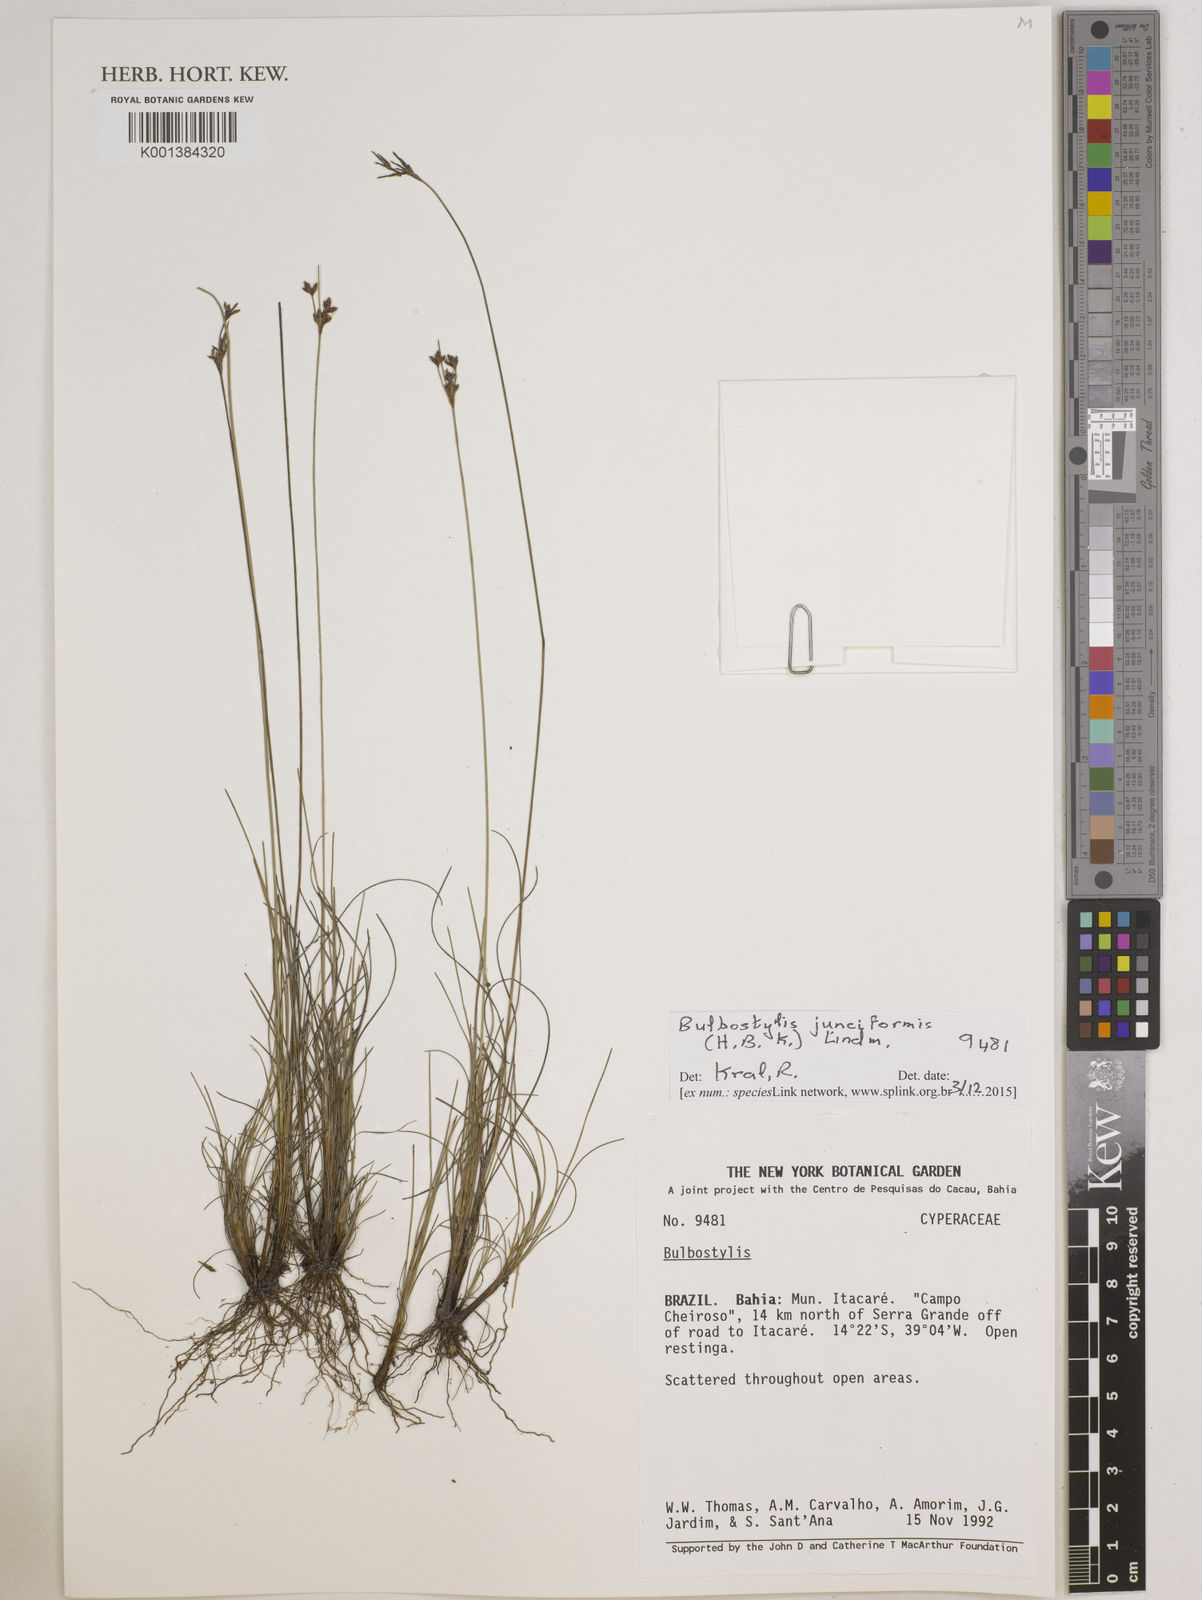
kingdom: Plantae
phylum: Tracheophyta
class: Liliopsida
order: Poales
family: Cyperaceae
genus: Bulbostylis
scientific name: Bulbostylis junciformis
